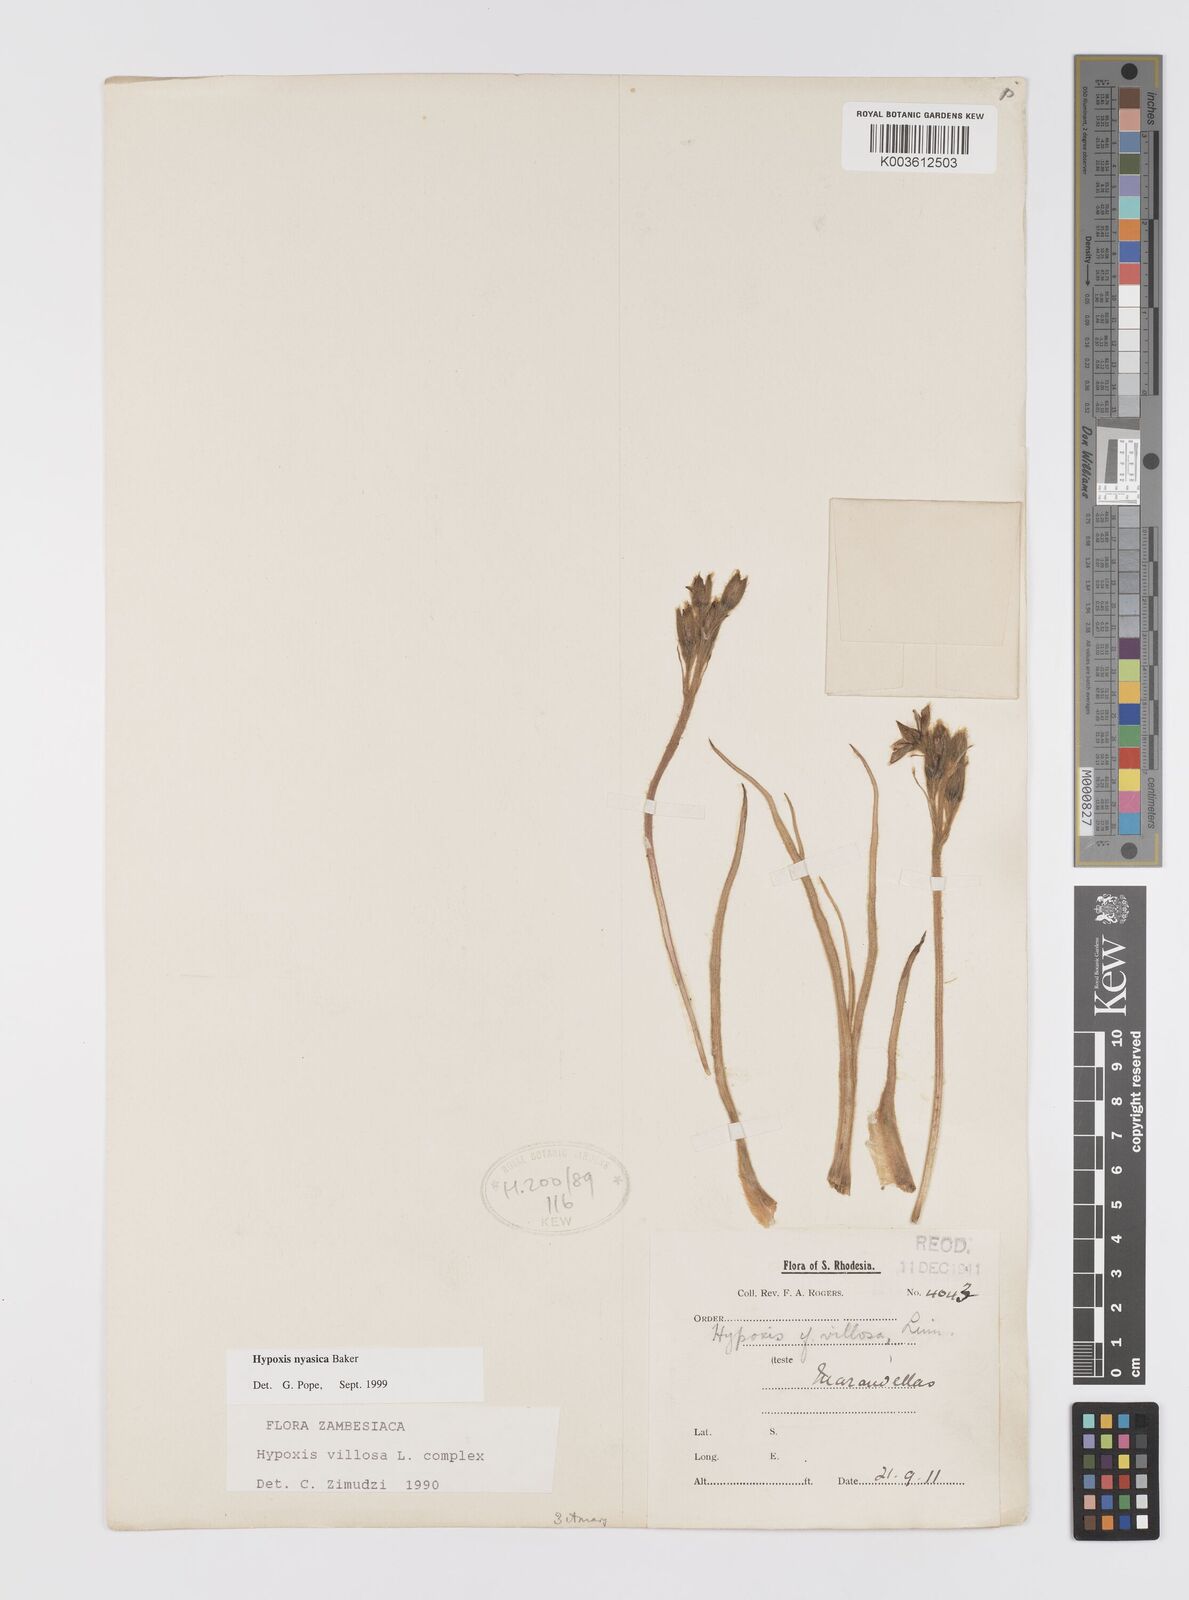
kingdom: Plantae
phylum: Tracheophyta
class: Liliopsida
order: Asparagales
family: Hypoxidaceae
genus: Hypoxis
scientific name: Hypoxis nyasica
